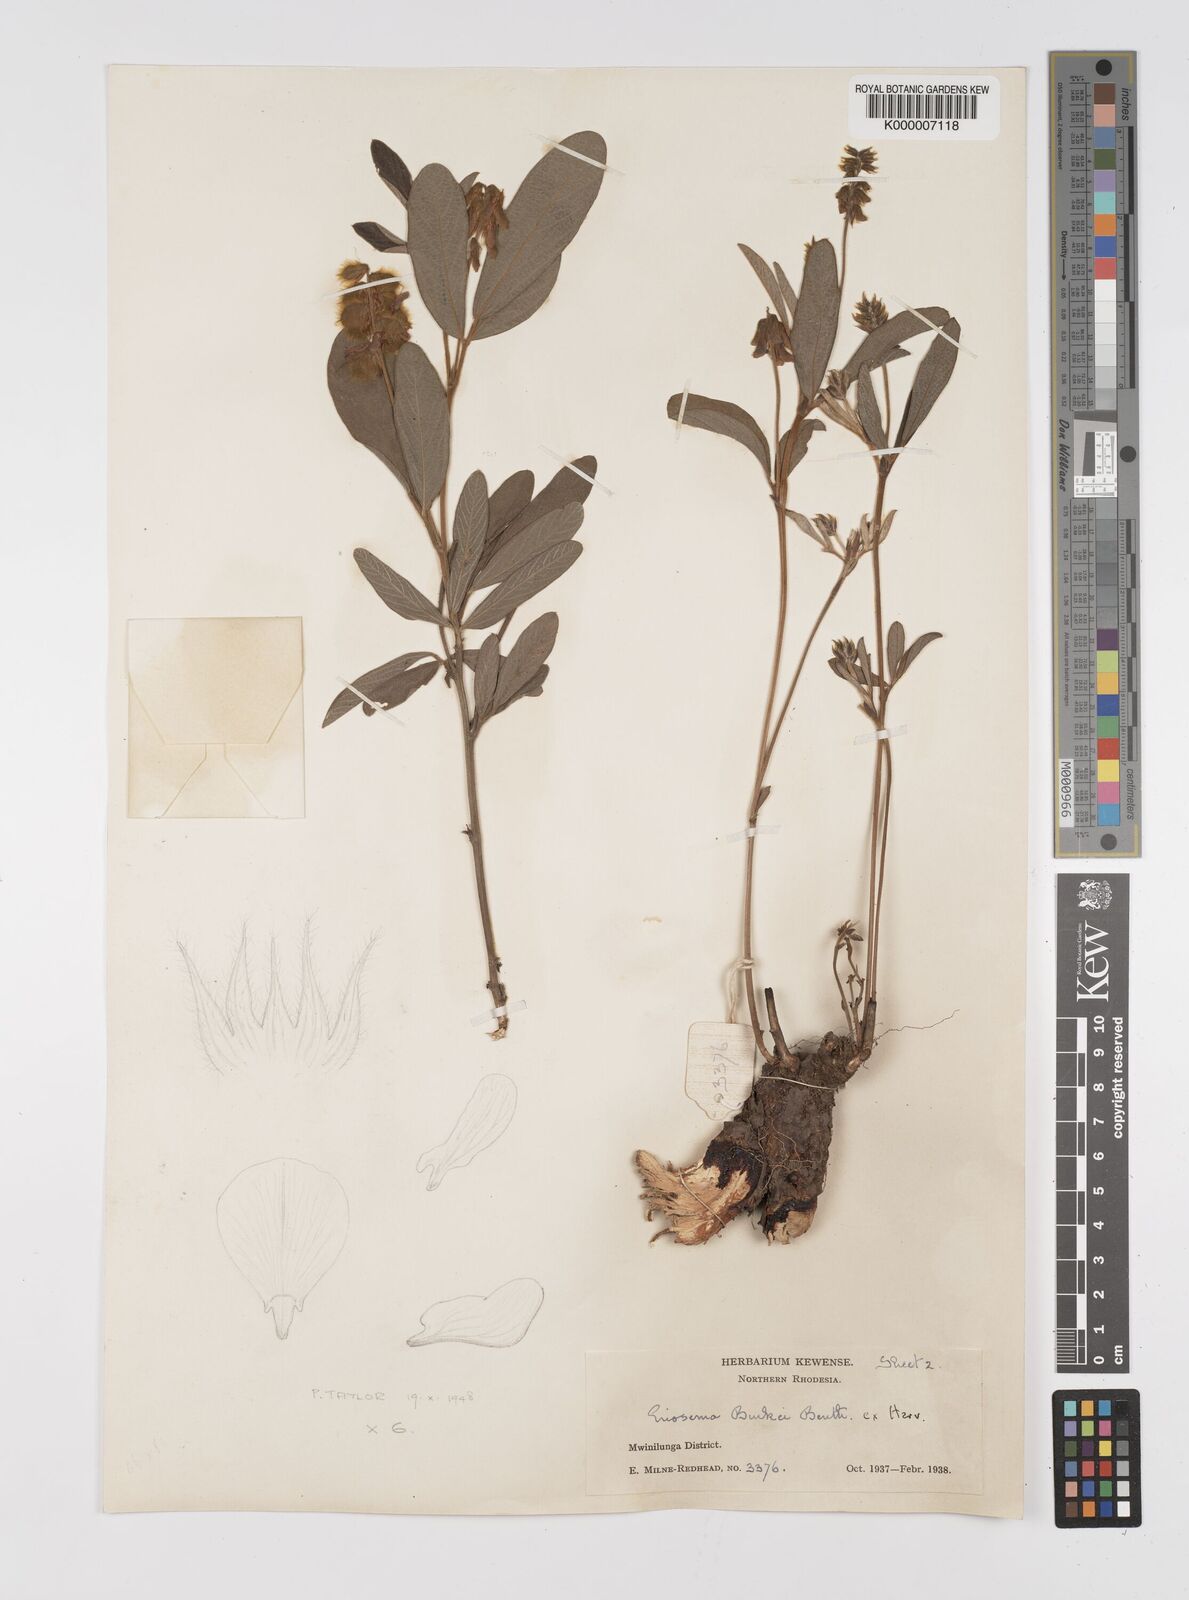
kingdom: Plantae
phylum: Tracheophyta
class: Magnoliopsida
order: Fabales
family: Fabaceae
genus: Eriosema
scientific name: Eriosema burkei
